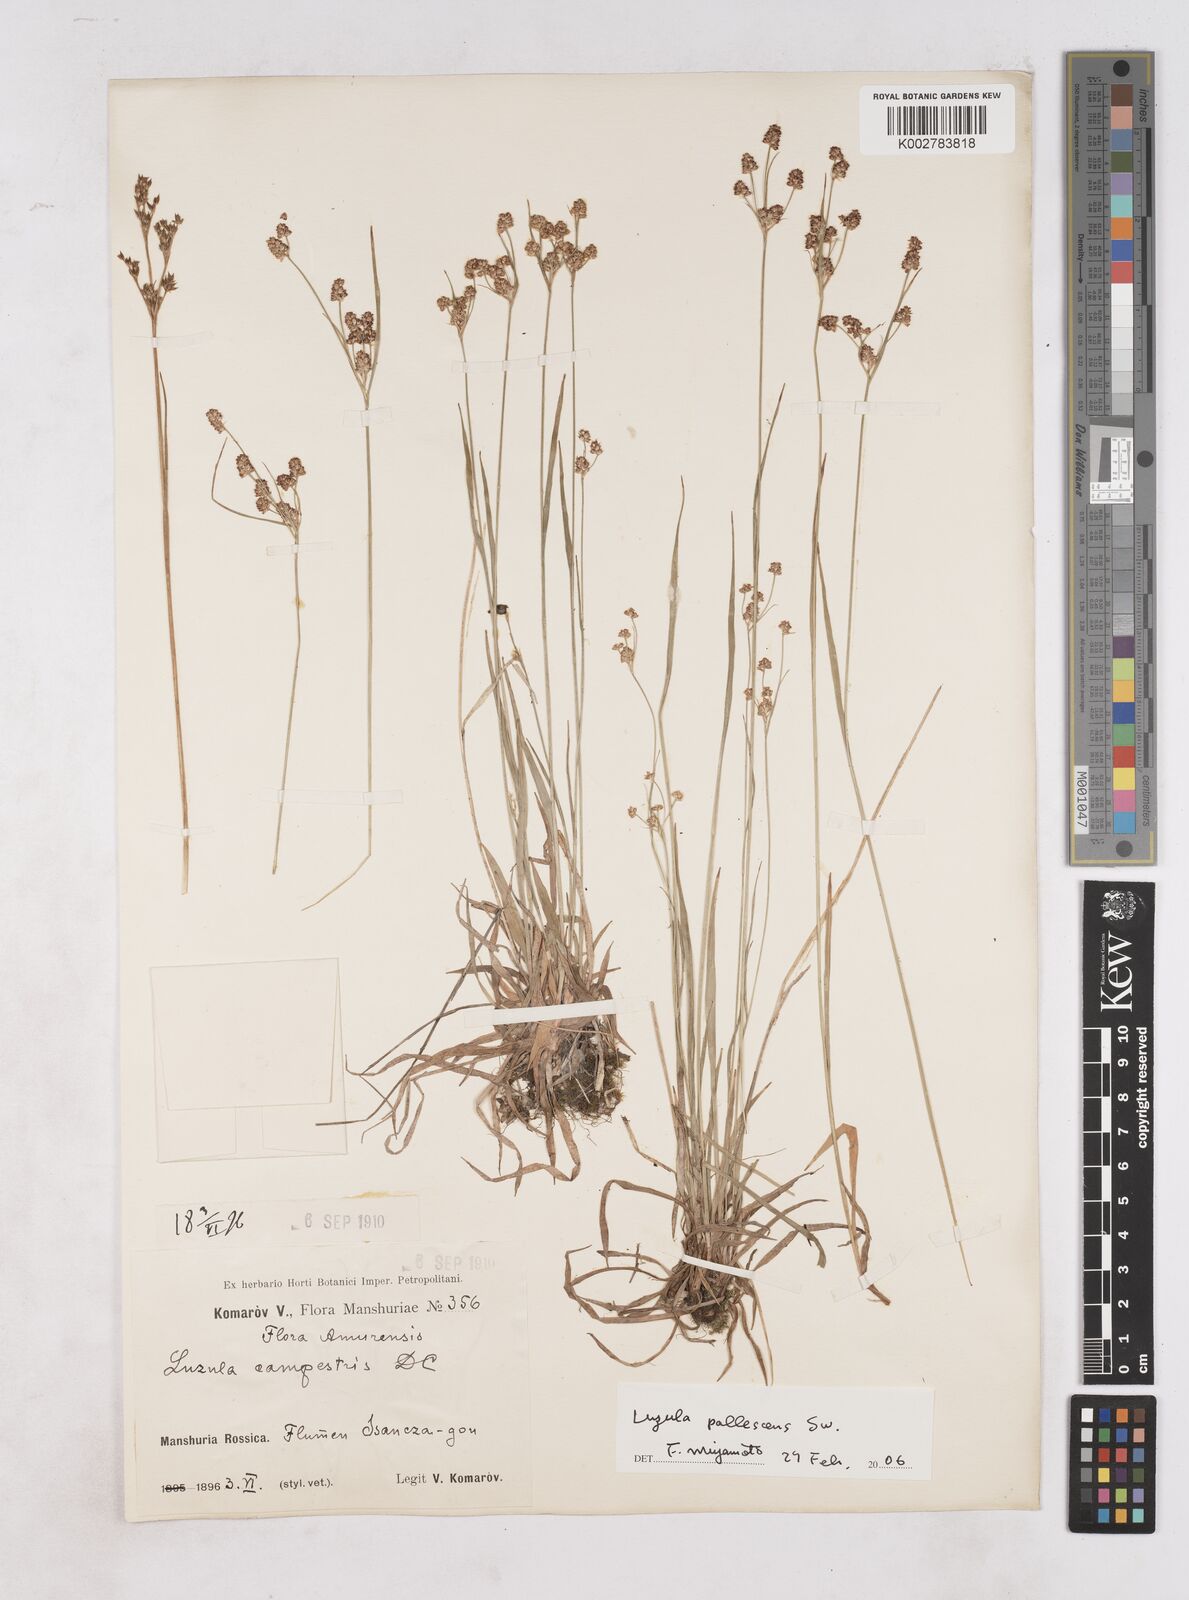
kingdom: Plantae
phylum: Tracheophyta
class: Liliopsida
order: Poales
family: Juncaceae
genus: Luzula
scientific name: Luzula pallescens
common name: Fen wood-rush
